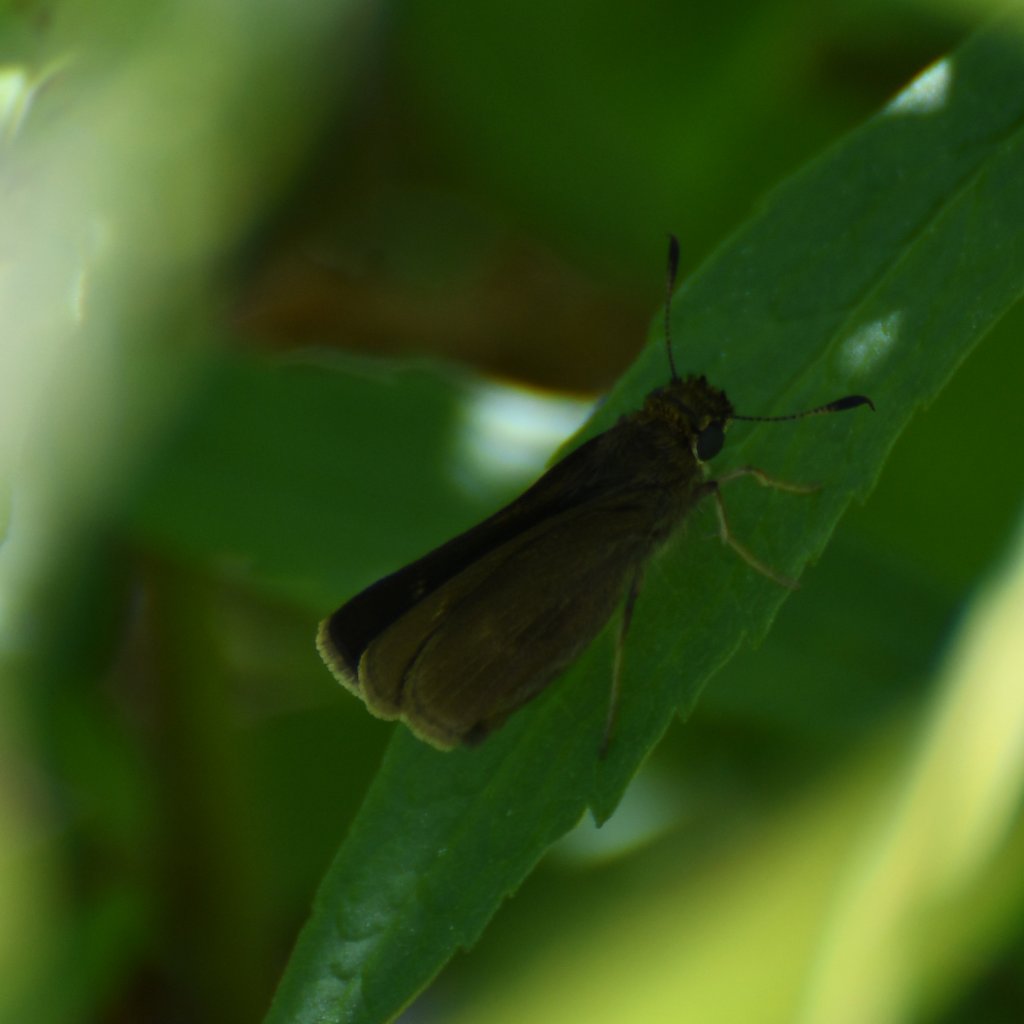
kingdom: Animalia
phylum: Arthropoda
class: Insecta
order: Lepidoptera
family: Hesperiidae
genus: Euphyes
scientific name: Euphyes vestris
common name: Dun Skipper
